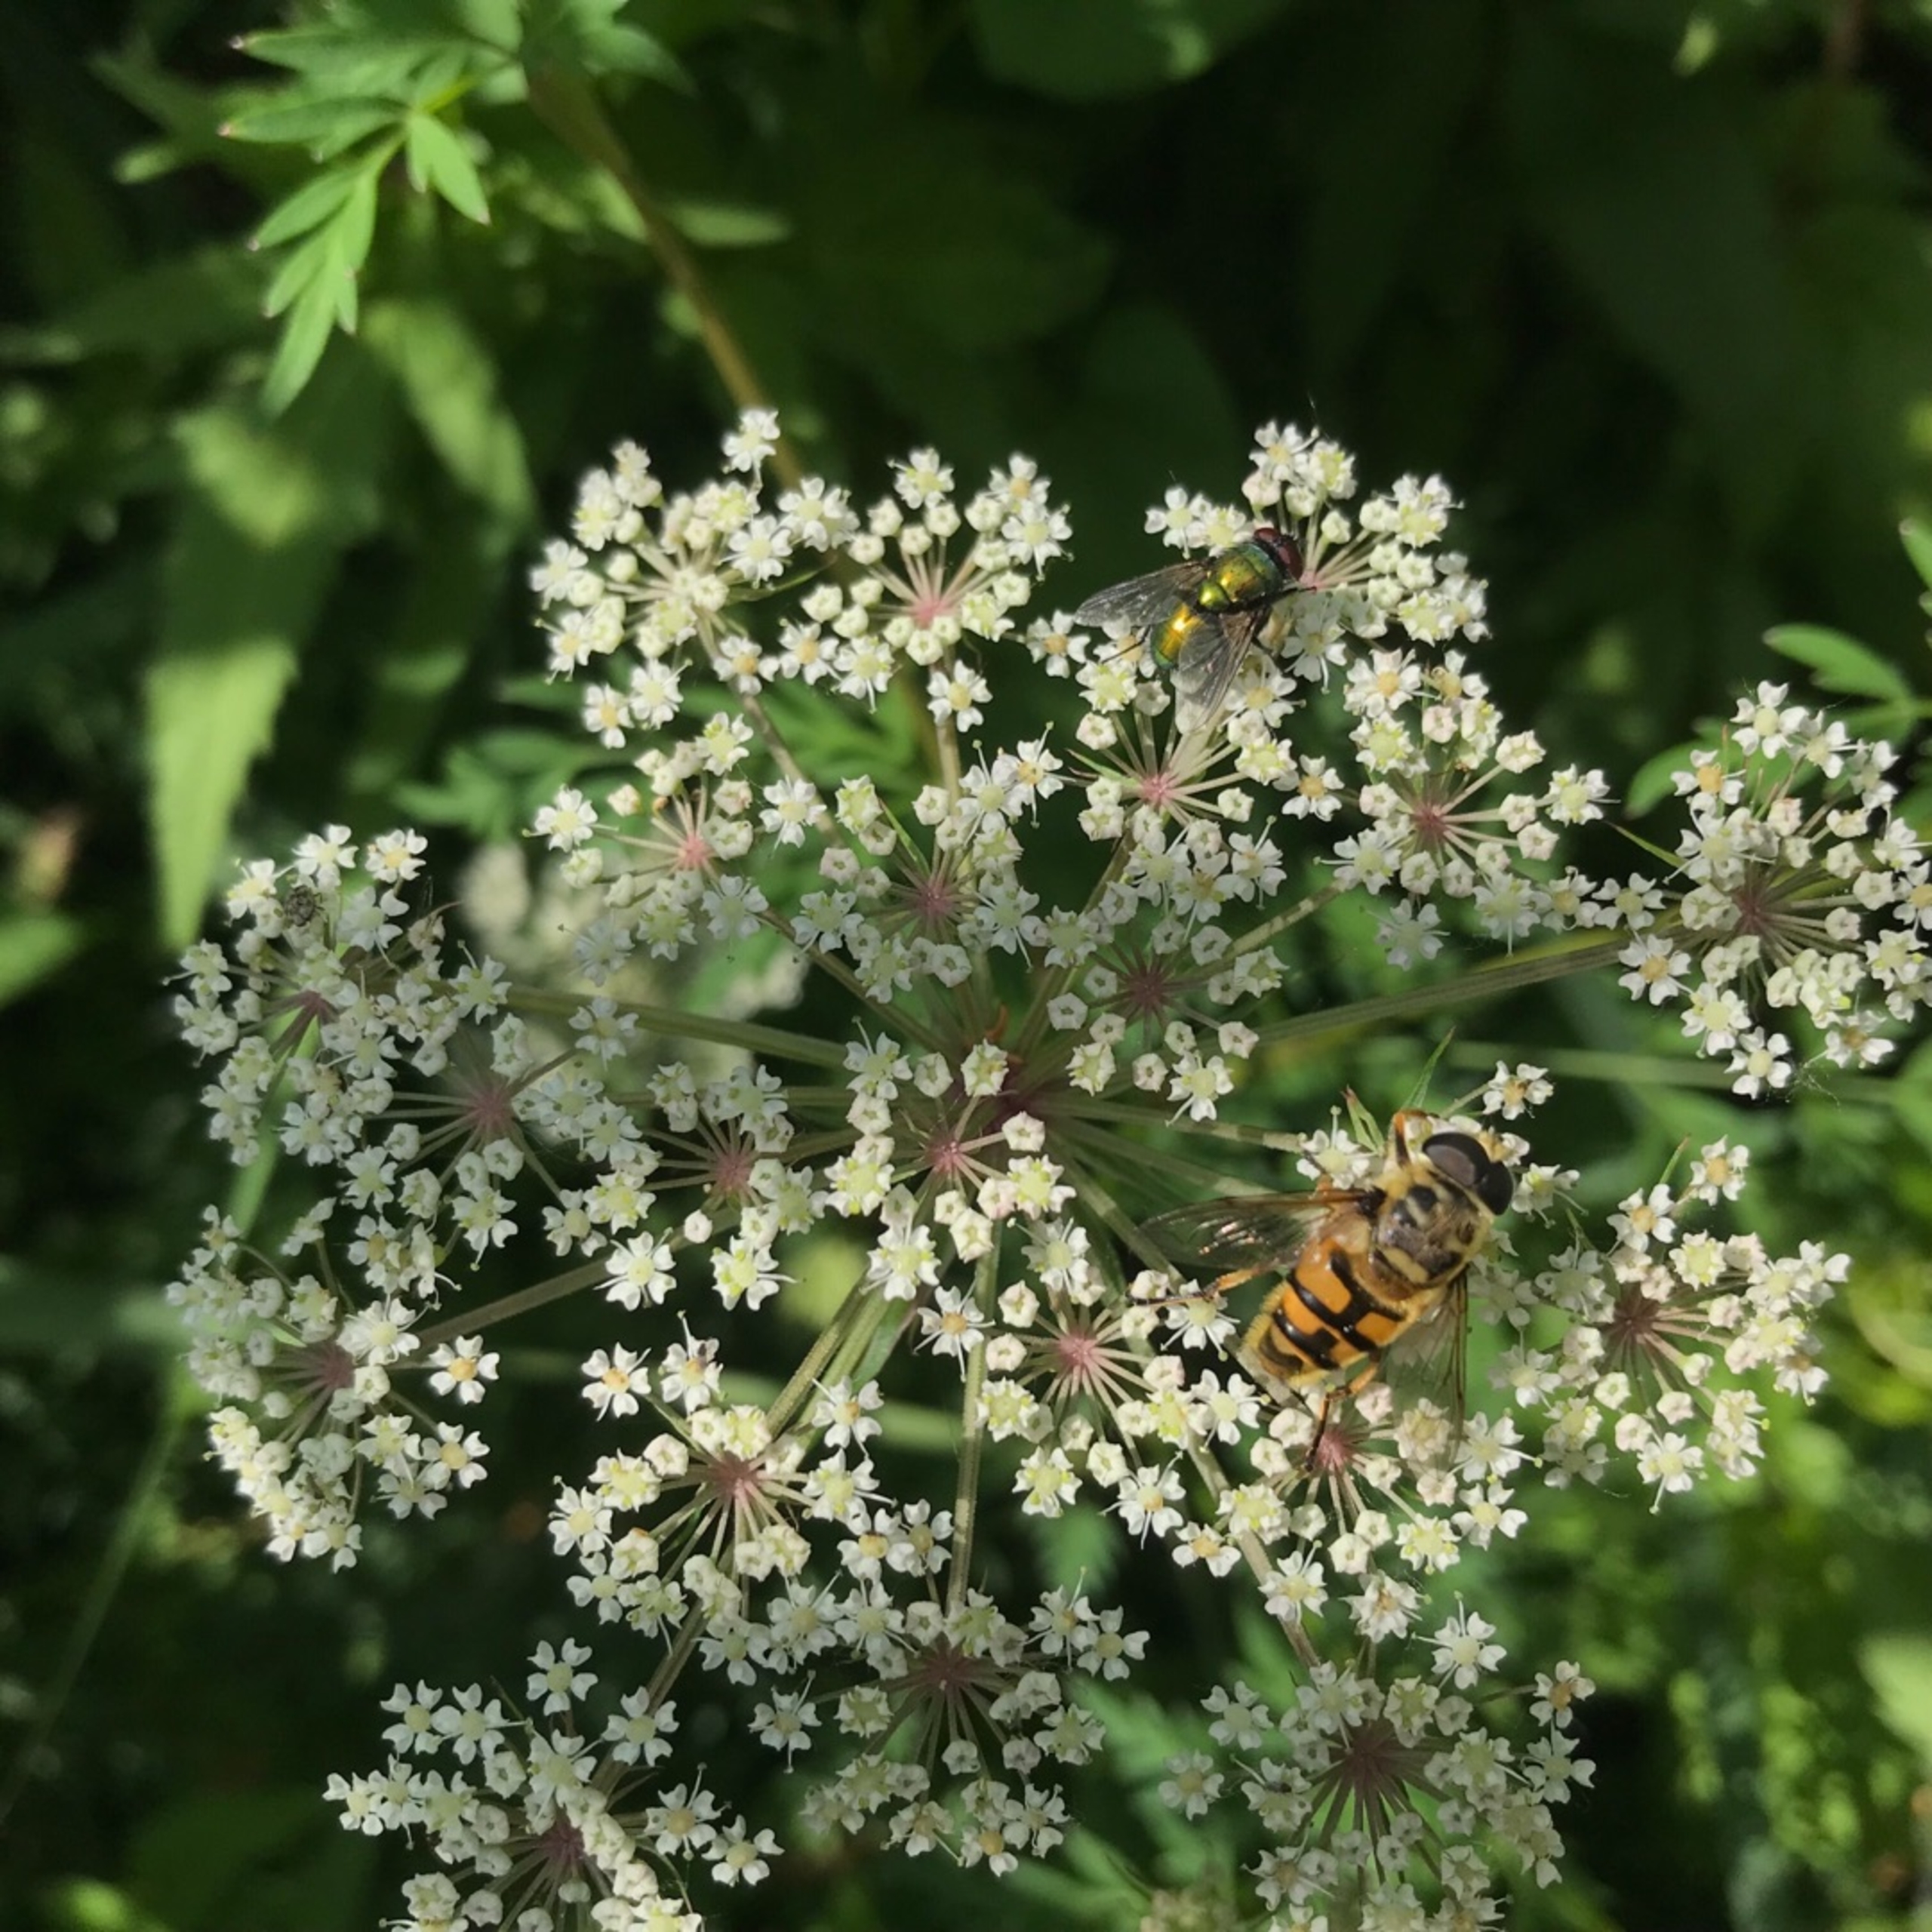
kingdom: Animalia
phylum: Arthropoda
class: Insecta
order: Diptera
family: Syrphidae
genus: Myathropa
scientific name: Myathropa florea
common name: Dødningehoved-svirreflue
